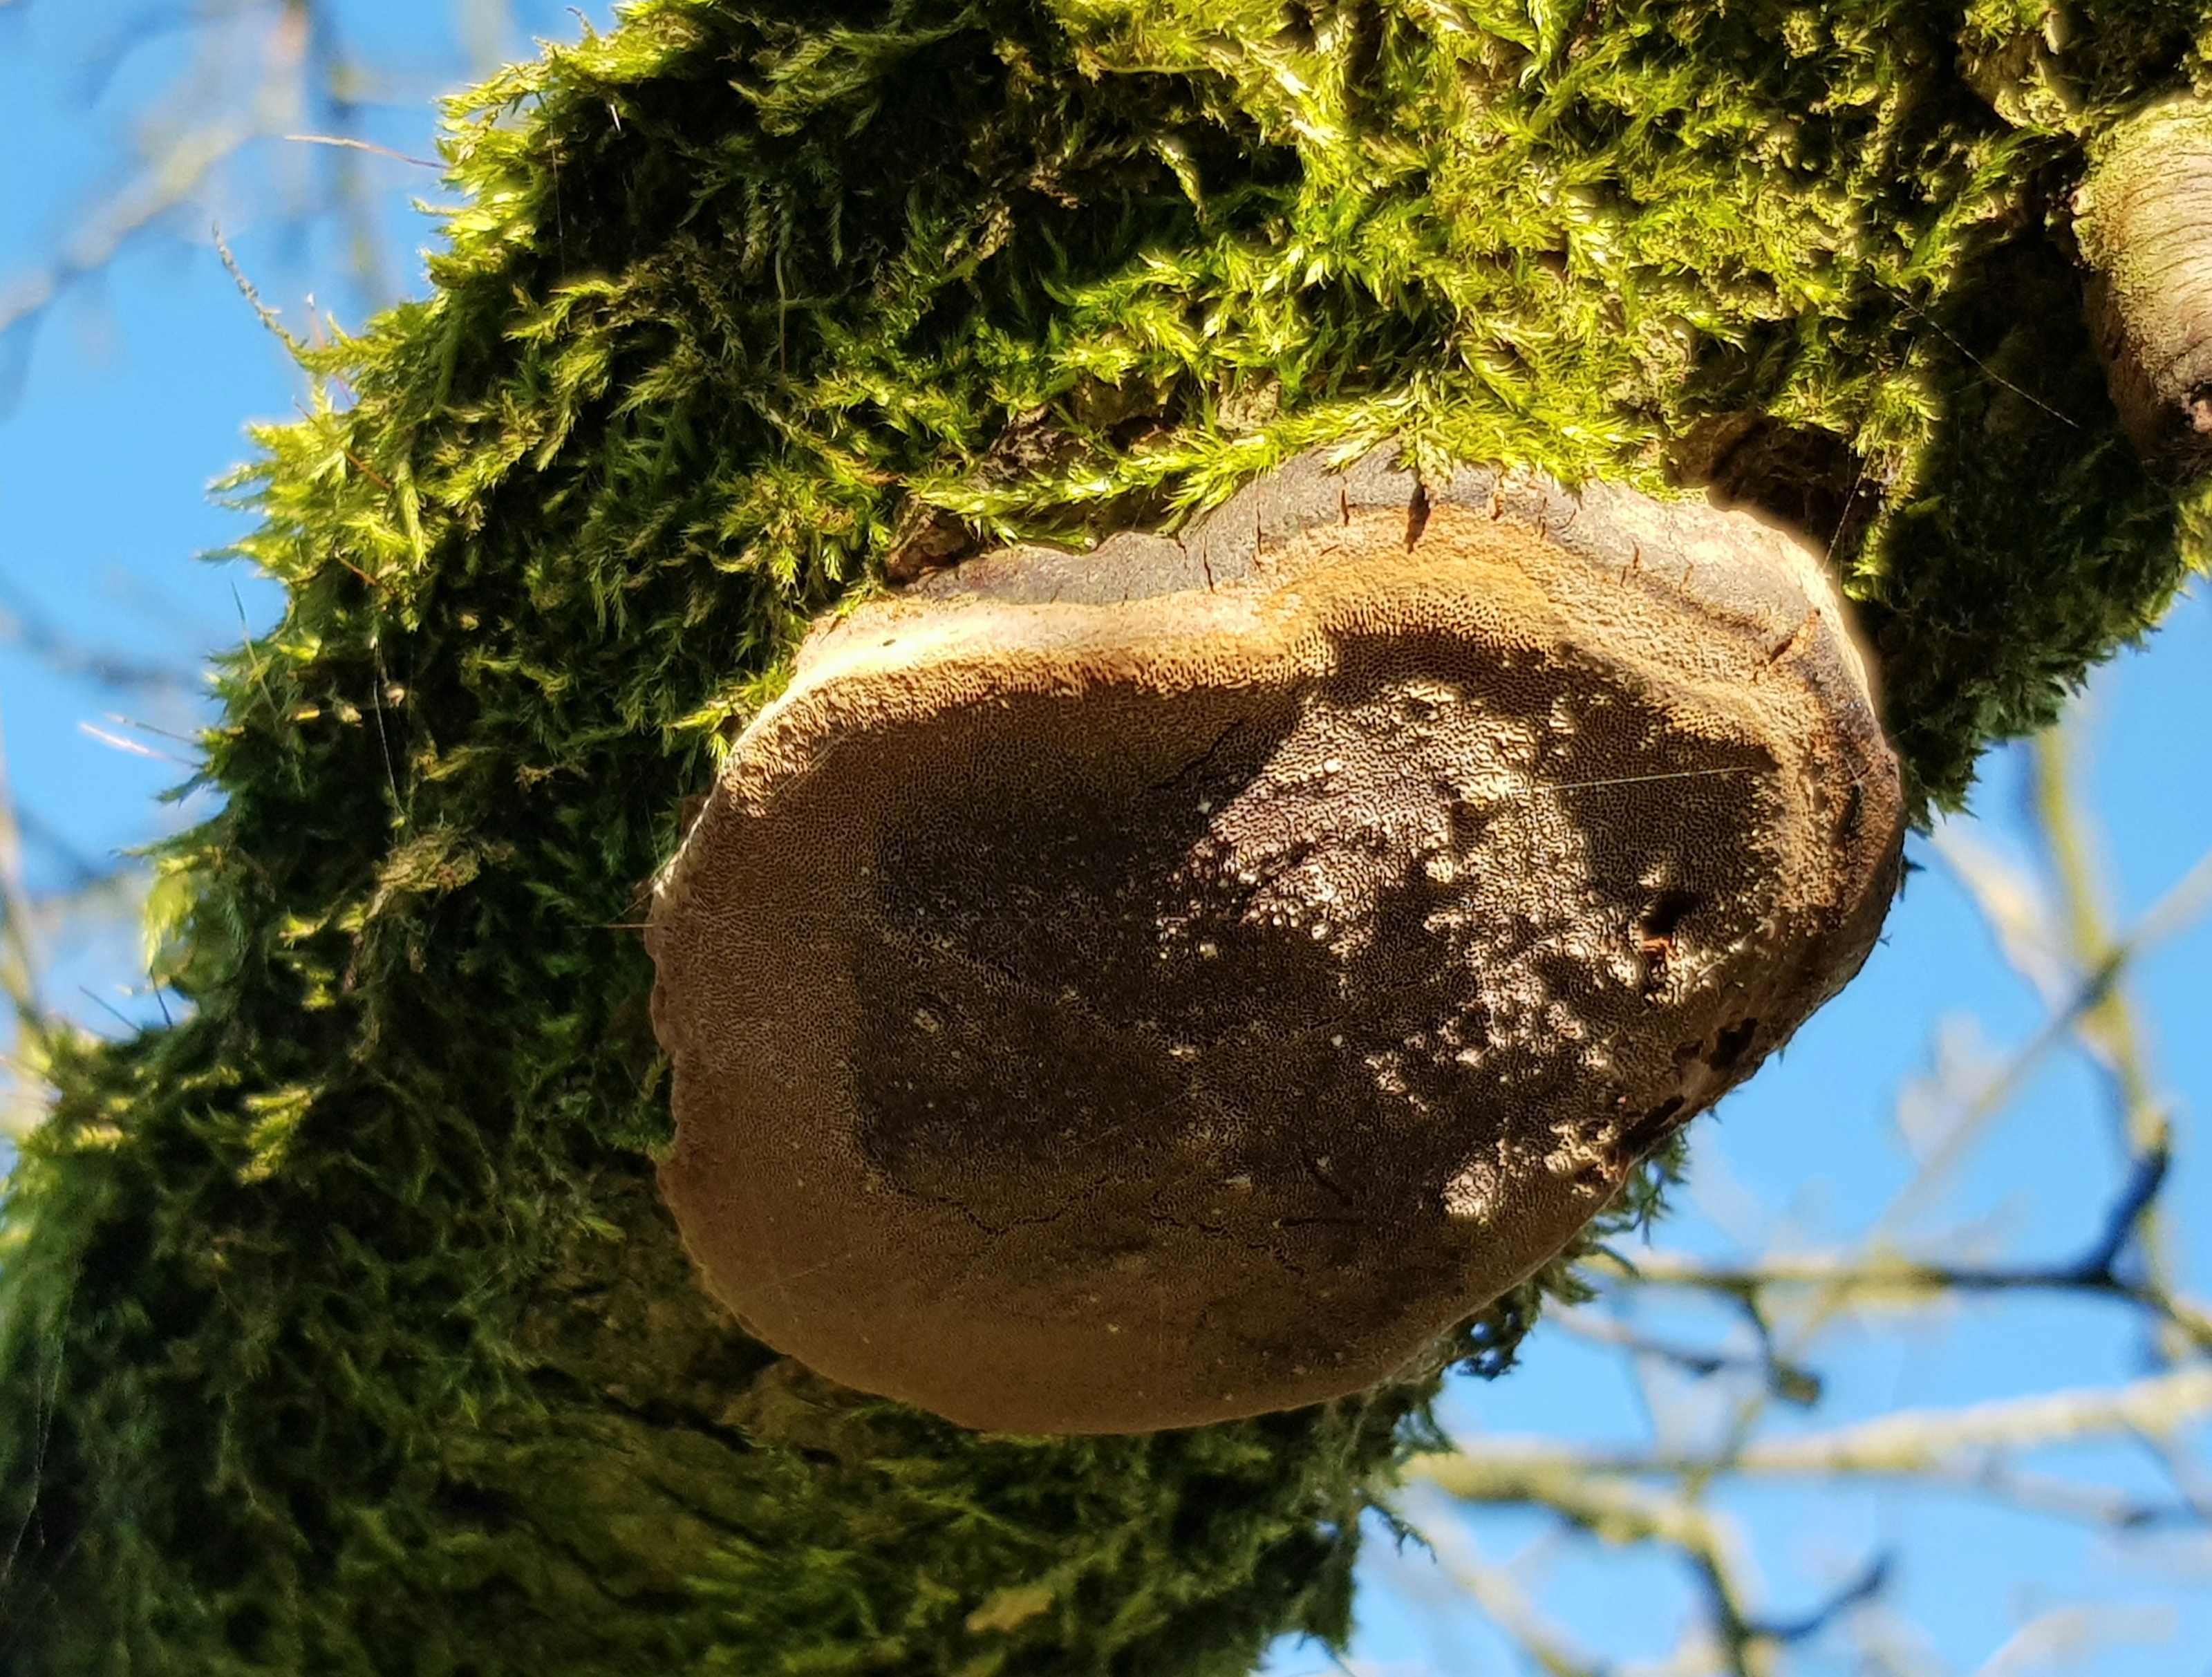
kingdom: Fungi
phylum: Basidiomycota
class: Agaricomycetes
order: Hymenochaetales
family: Hymenochaetaceae
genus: Phellinus
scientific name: Phellinus pomaceus
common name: blomme-ildporesvamp
